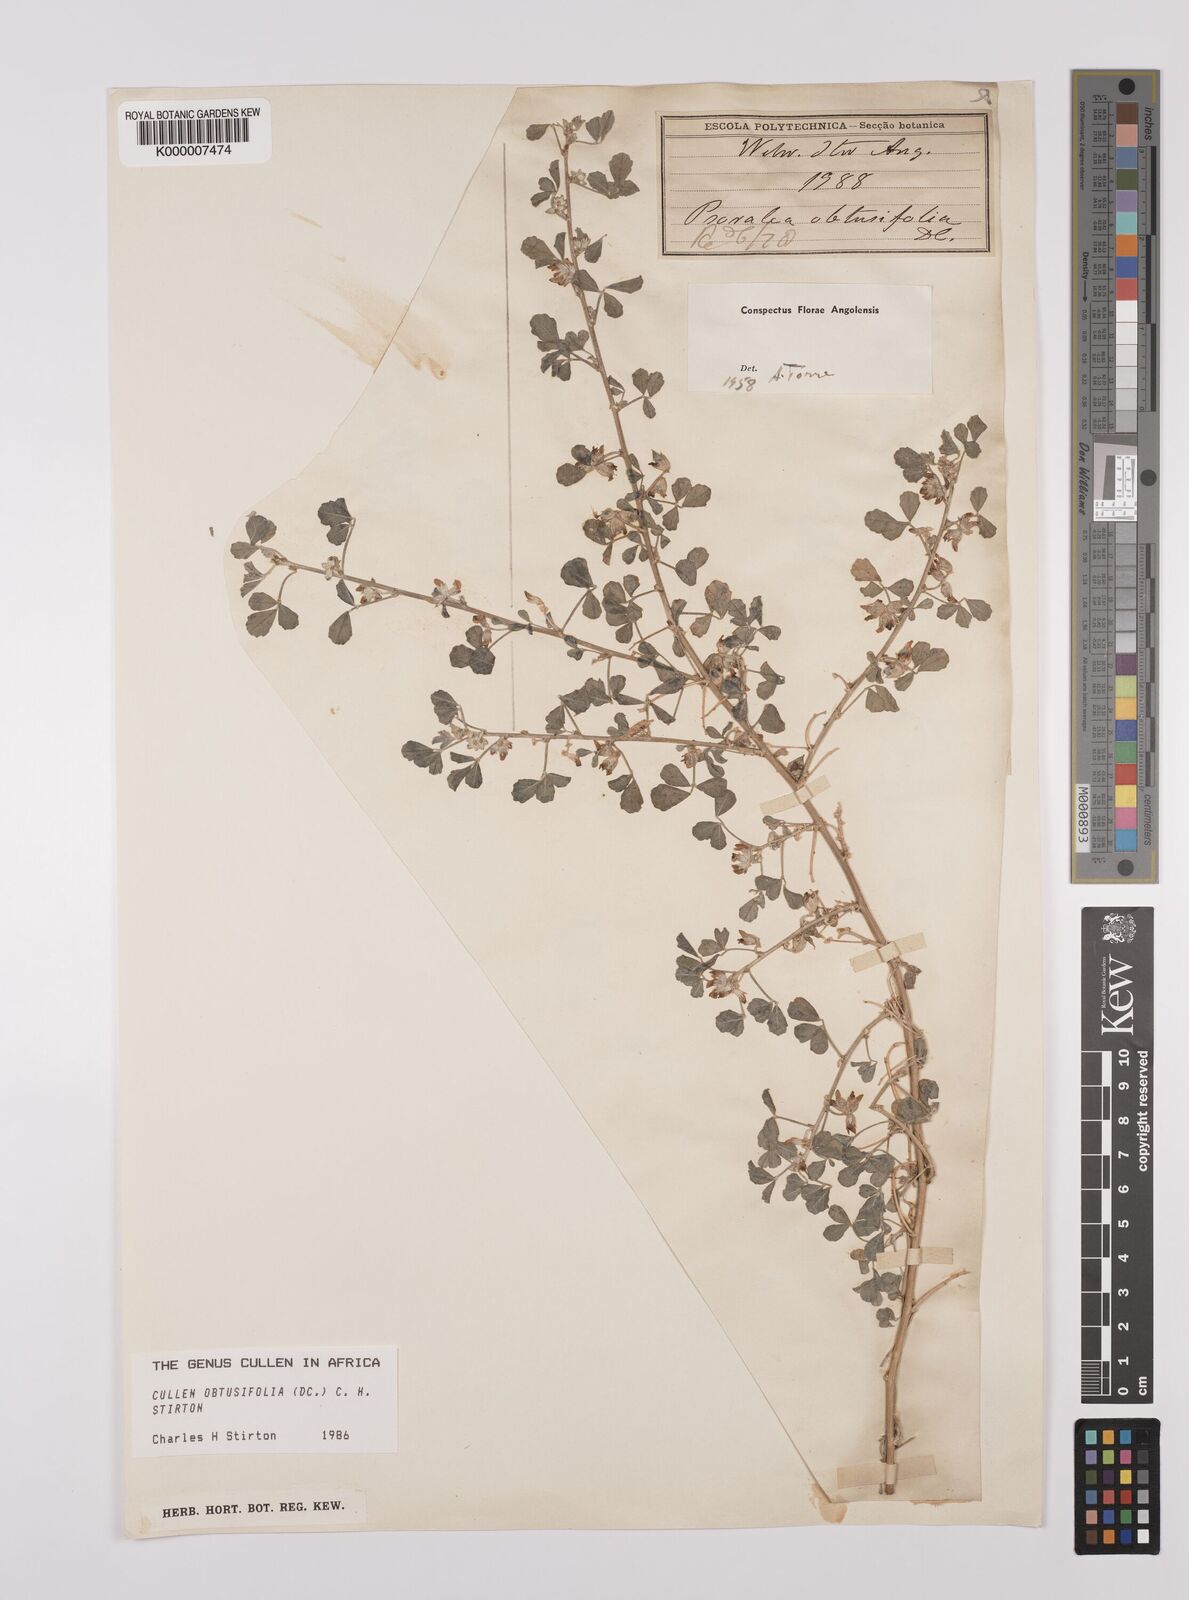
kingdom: Plantae
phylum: Tracheophyta
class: Magnoliopsida
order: Fabales
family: Fabaceae
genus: Cullen
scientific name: Cullen tomentosum
